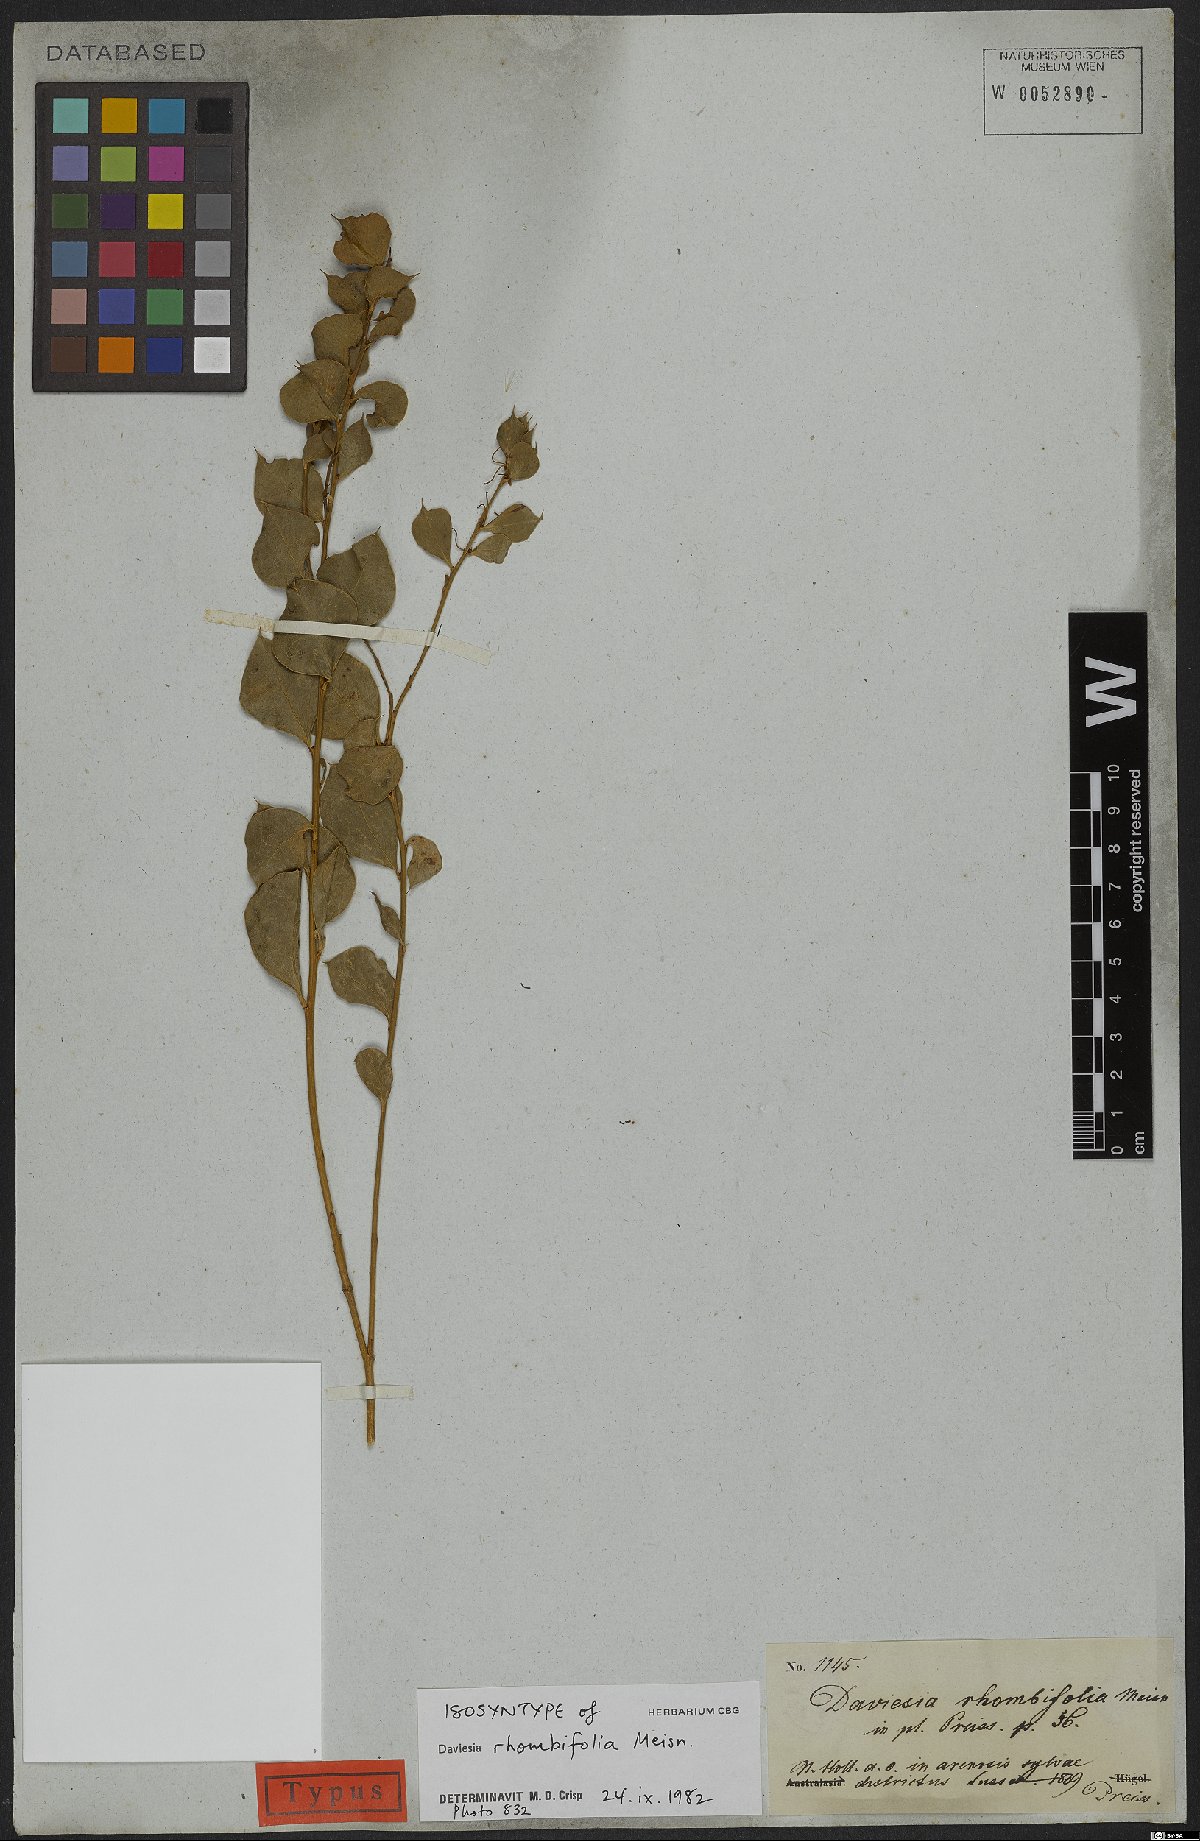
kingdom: Plantae
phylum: Tracheophyta
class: Magnoliopsida
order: Fabales
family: Fabaceae
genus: Daviesia
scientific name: Daviesia rhombifolia
